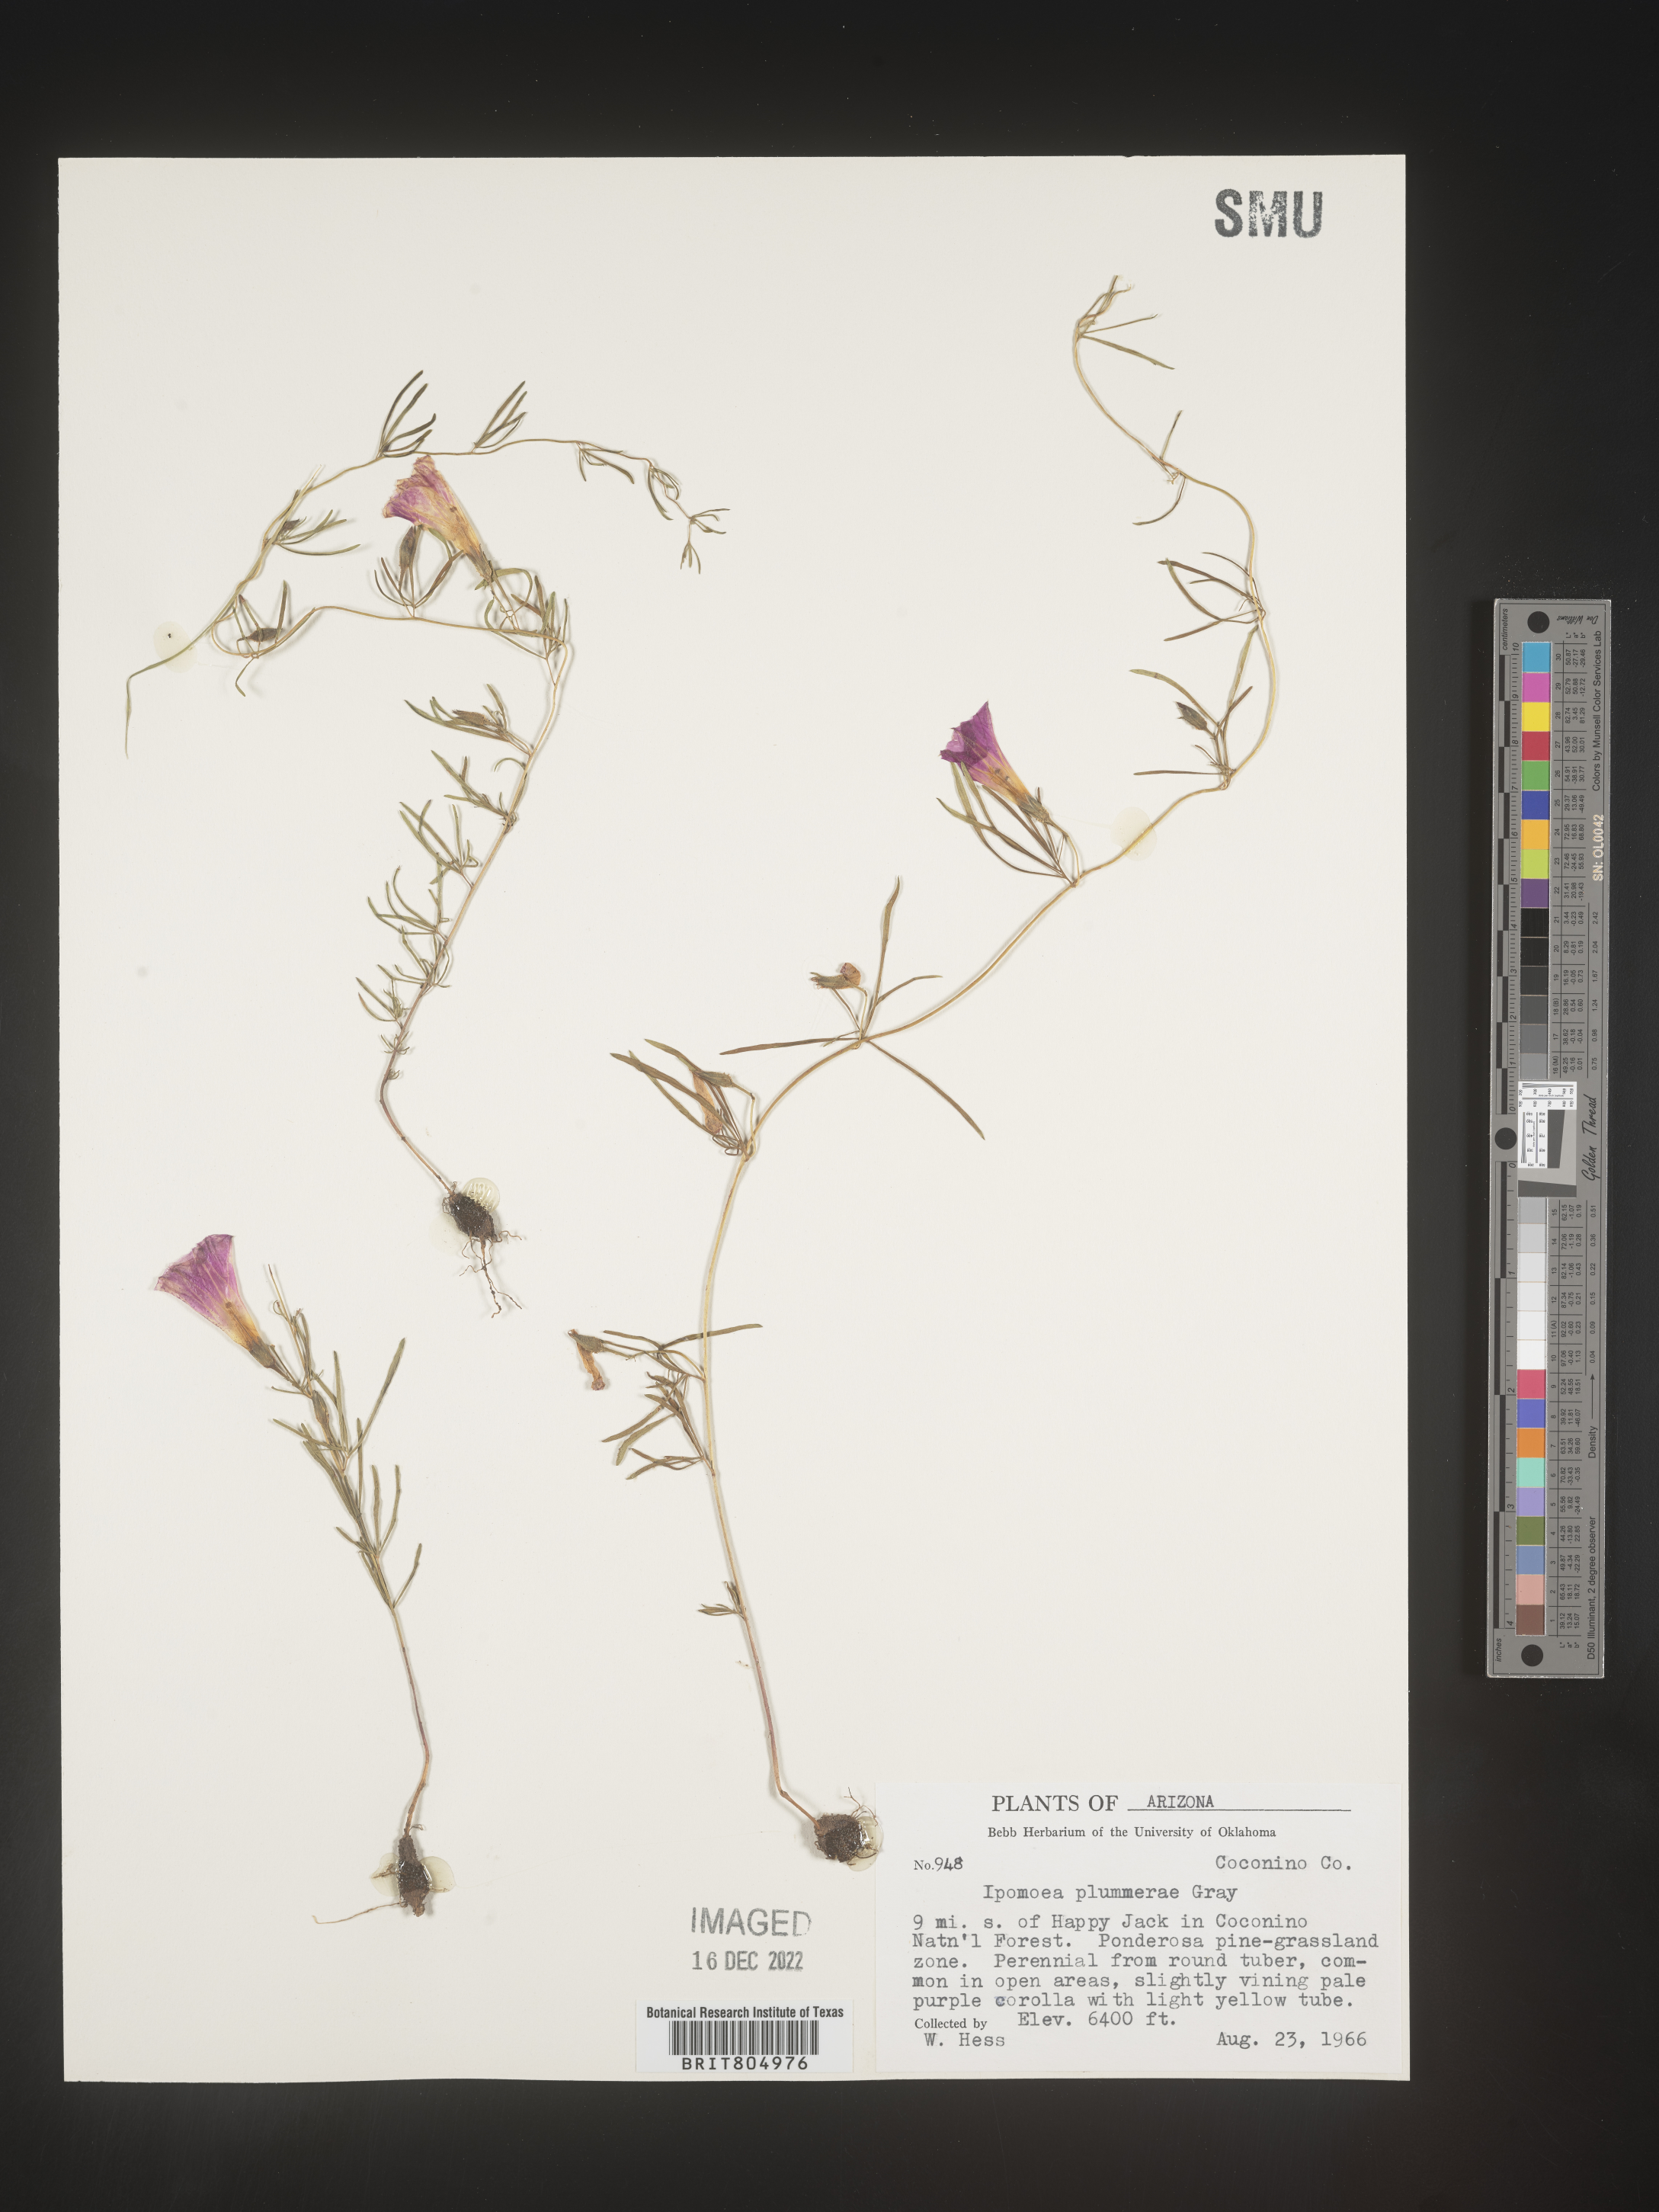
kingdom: Plantae
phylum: Tracheophyta
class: Magnoliopsida
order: Solanales
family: Convolvulaceae
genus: Ipomoea
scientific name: Ipomoea plummerae
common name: Plummer's morning-glory
